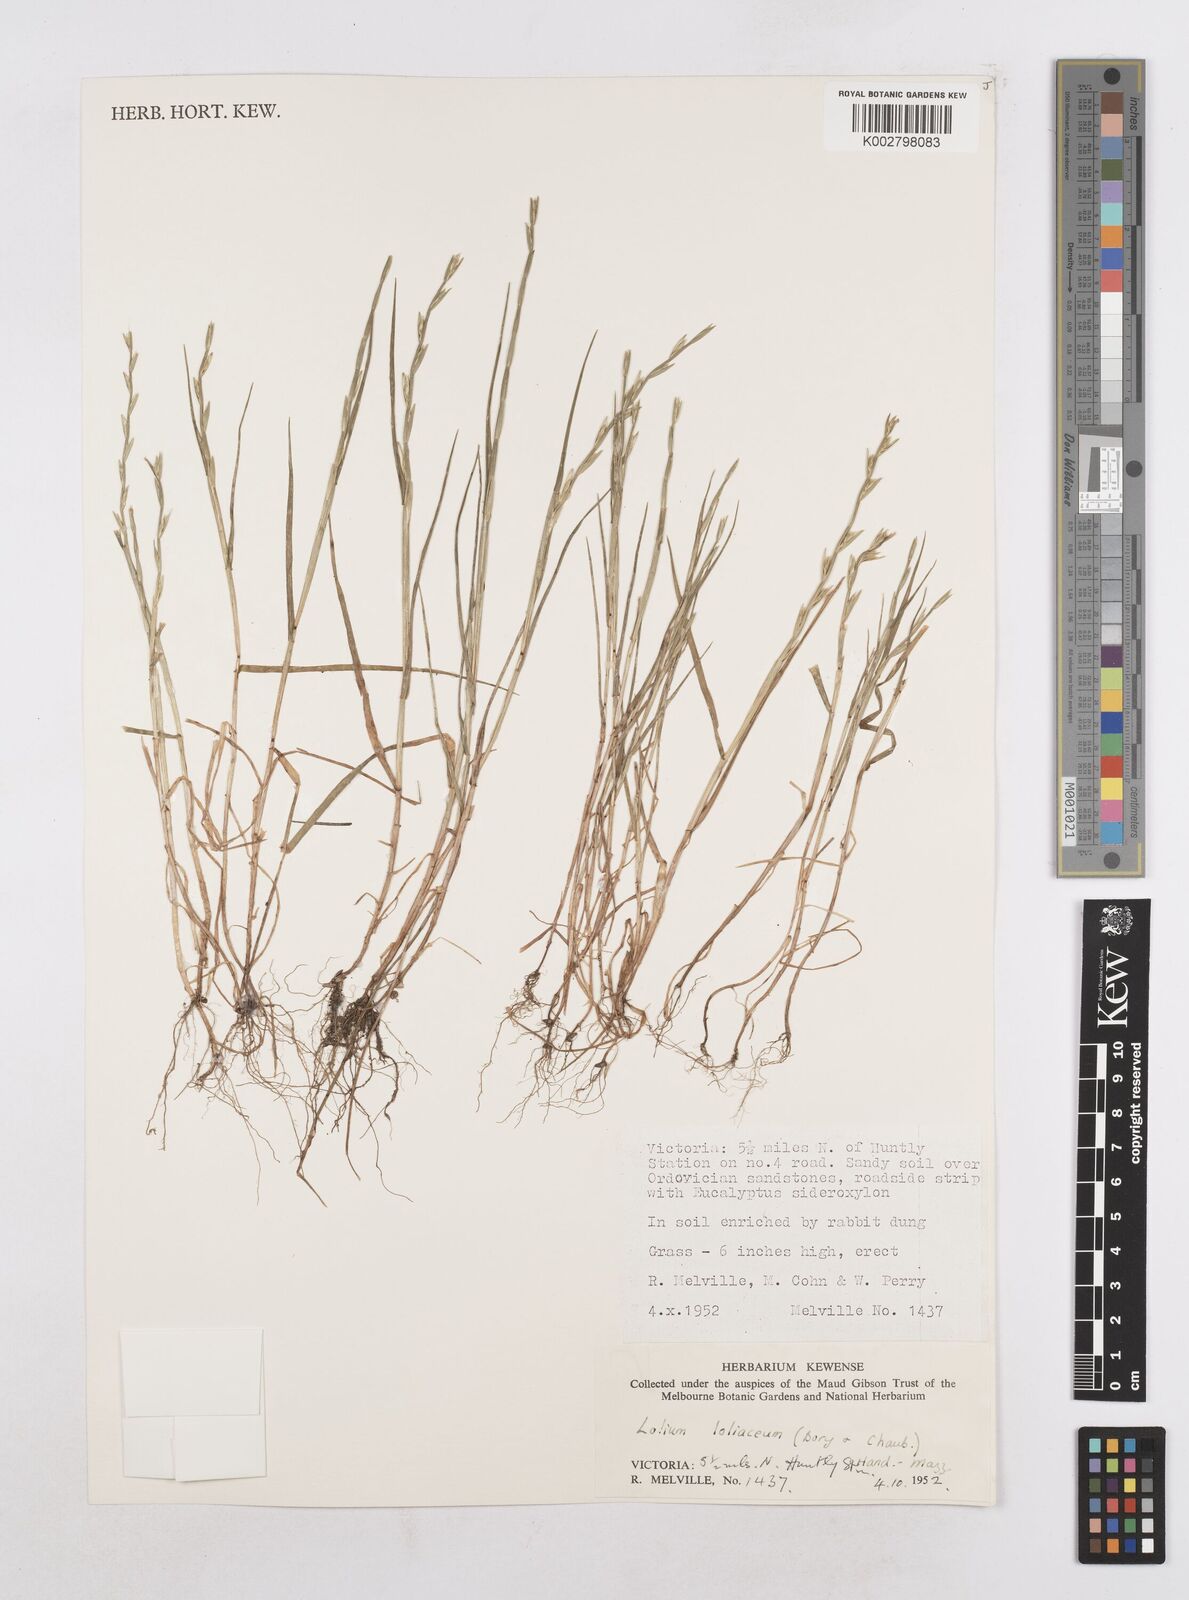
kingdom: Plantae
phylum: Tracheophyta
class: Liliopsida
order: Poales
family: Poaceae
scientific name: Poaceae
